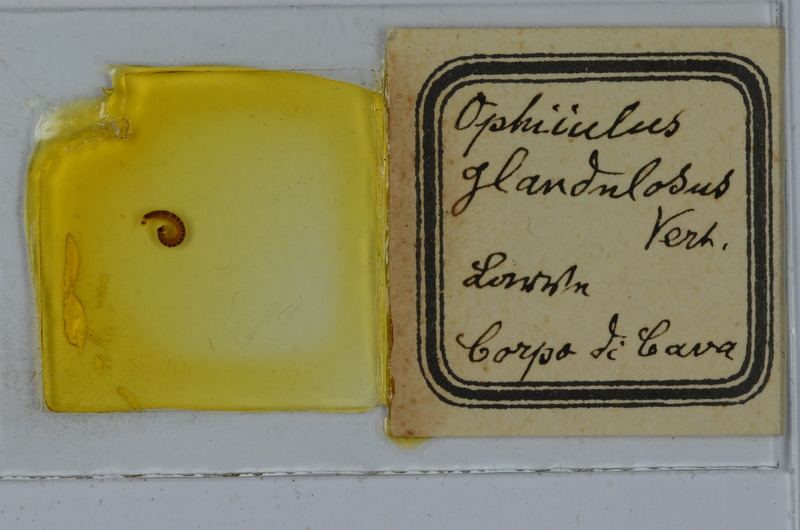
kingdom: Animalia
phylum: Arthropoda
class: Diplopoda
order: Julida
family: Julidae
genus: Ophyiulus
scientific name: Ophyiulus napolitanus
